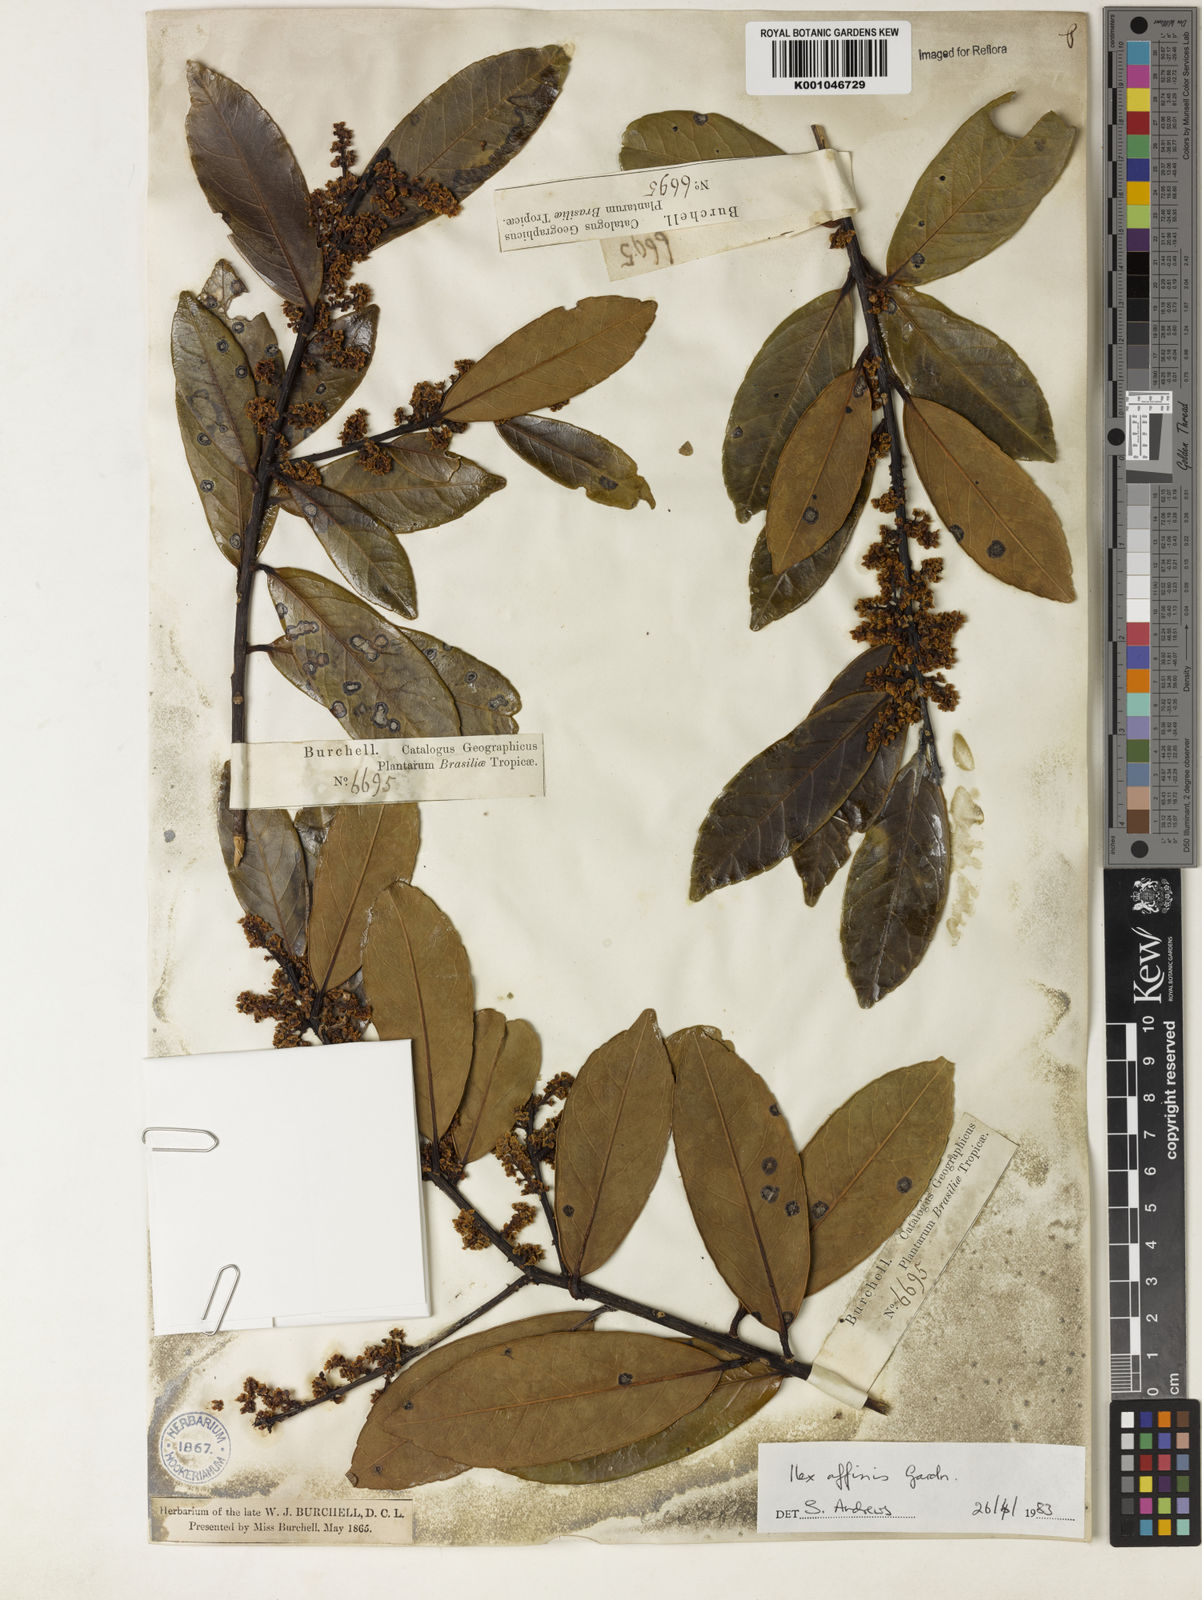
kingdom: Plantae
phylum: Tracheophyta
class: Magnoliopsida
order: Aquifoliales
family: Aquifoliaceae
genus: Ilex
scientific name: Ilex affinis
